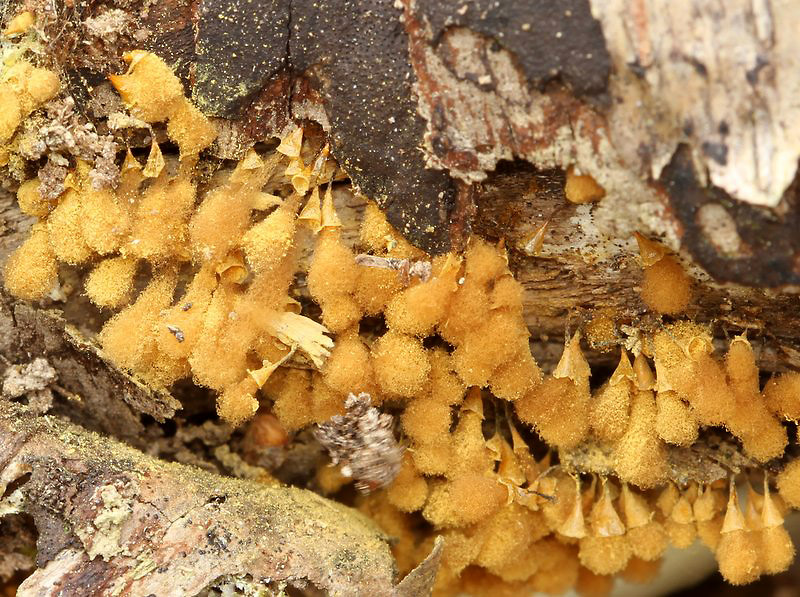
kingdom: Protozoa
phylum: Mycetozoa
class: Myxomycetes
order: Trichiales
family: Arcyriaceae
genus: Hemitrichia
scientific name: Hemitrichia clavata
